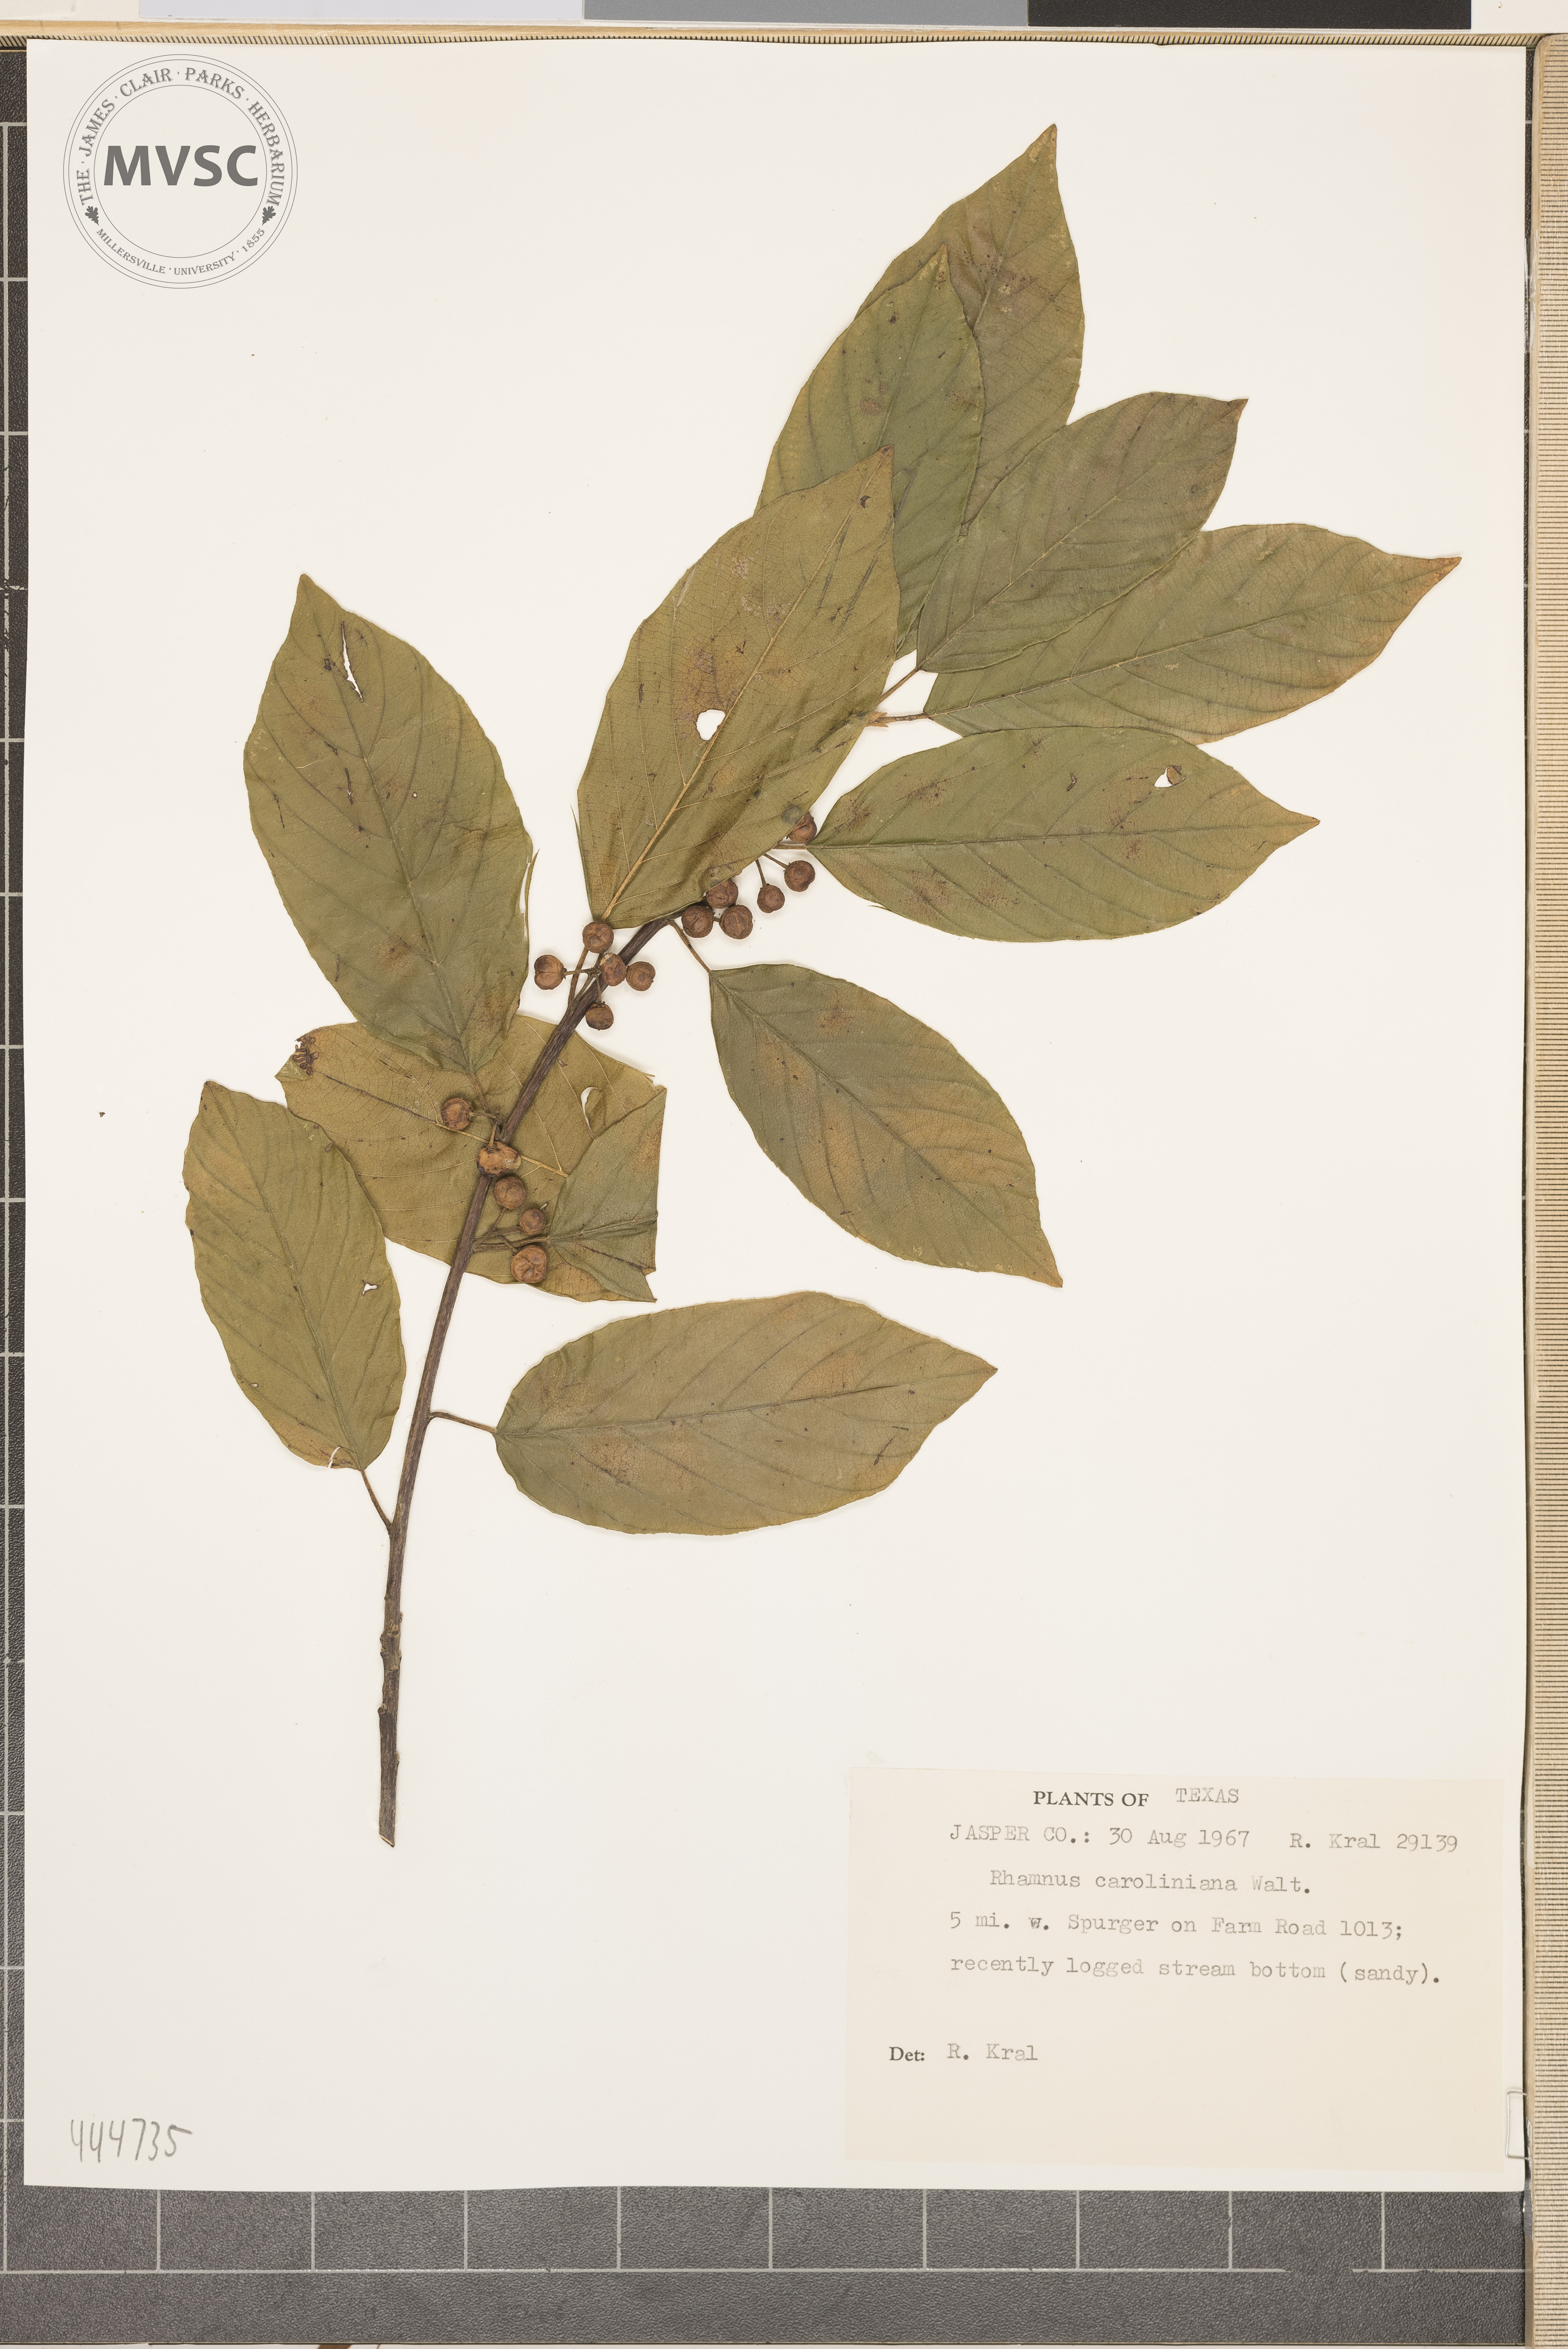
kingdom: Plantae
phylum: Tracheophyta
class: Magnoliopsida
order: Rosales
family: Rhamnaceae
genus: Frangula
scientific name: Frangula caroliniana
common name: Carolina buckthorn
